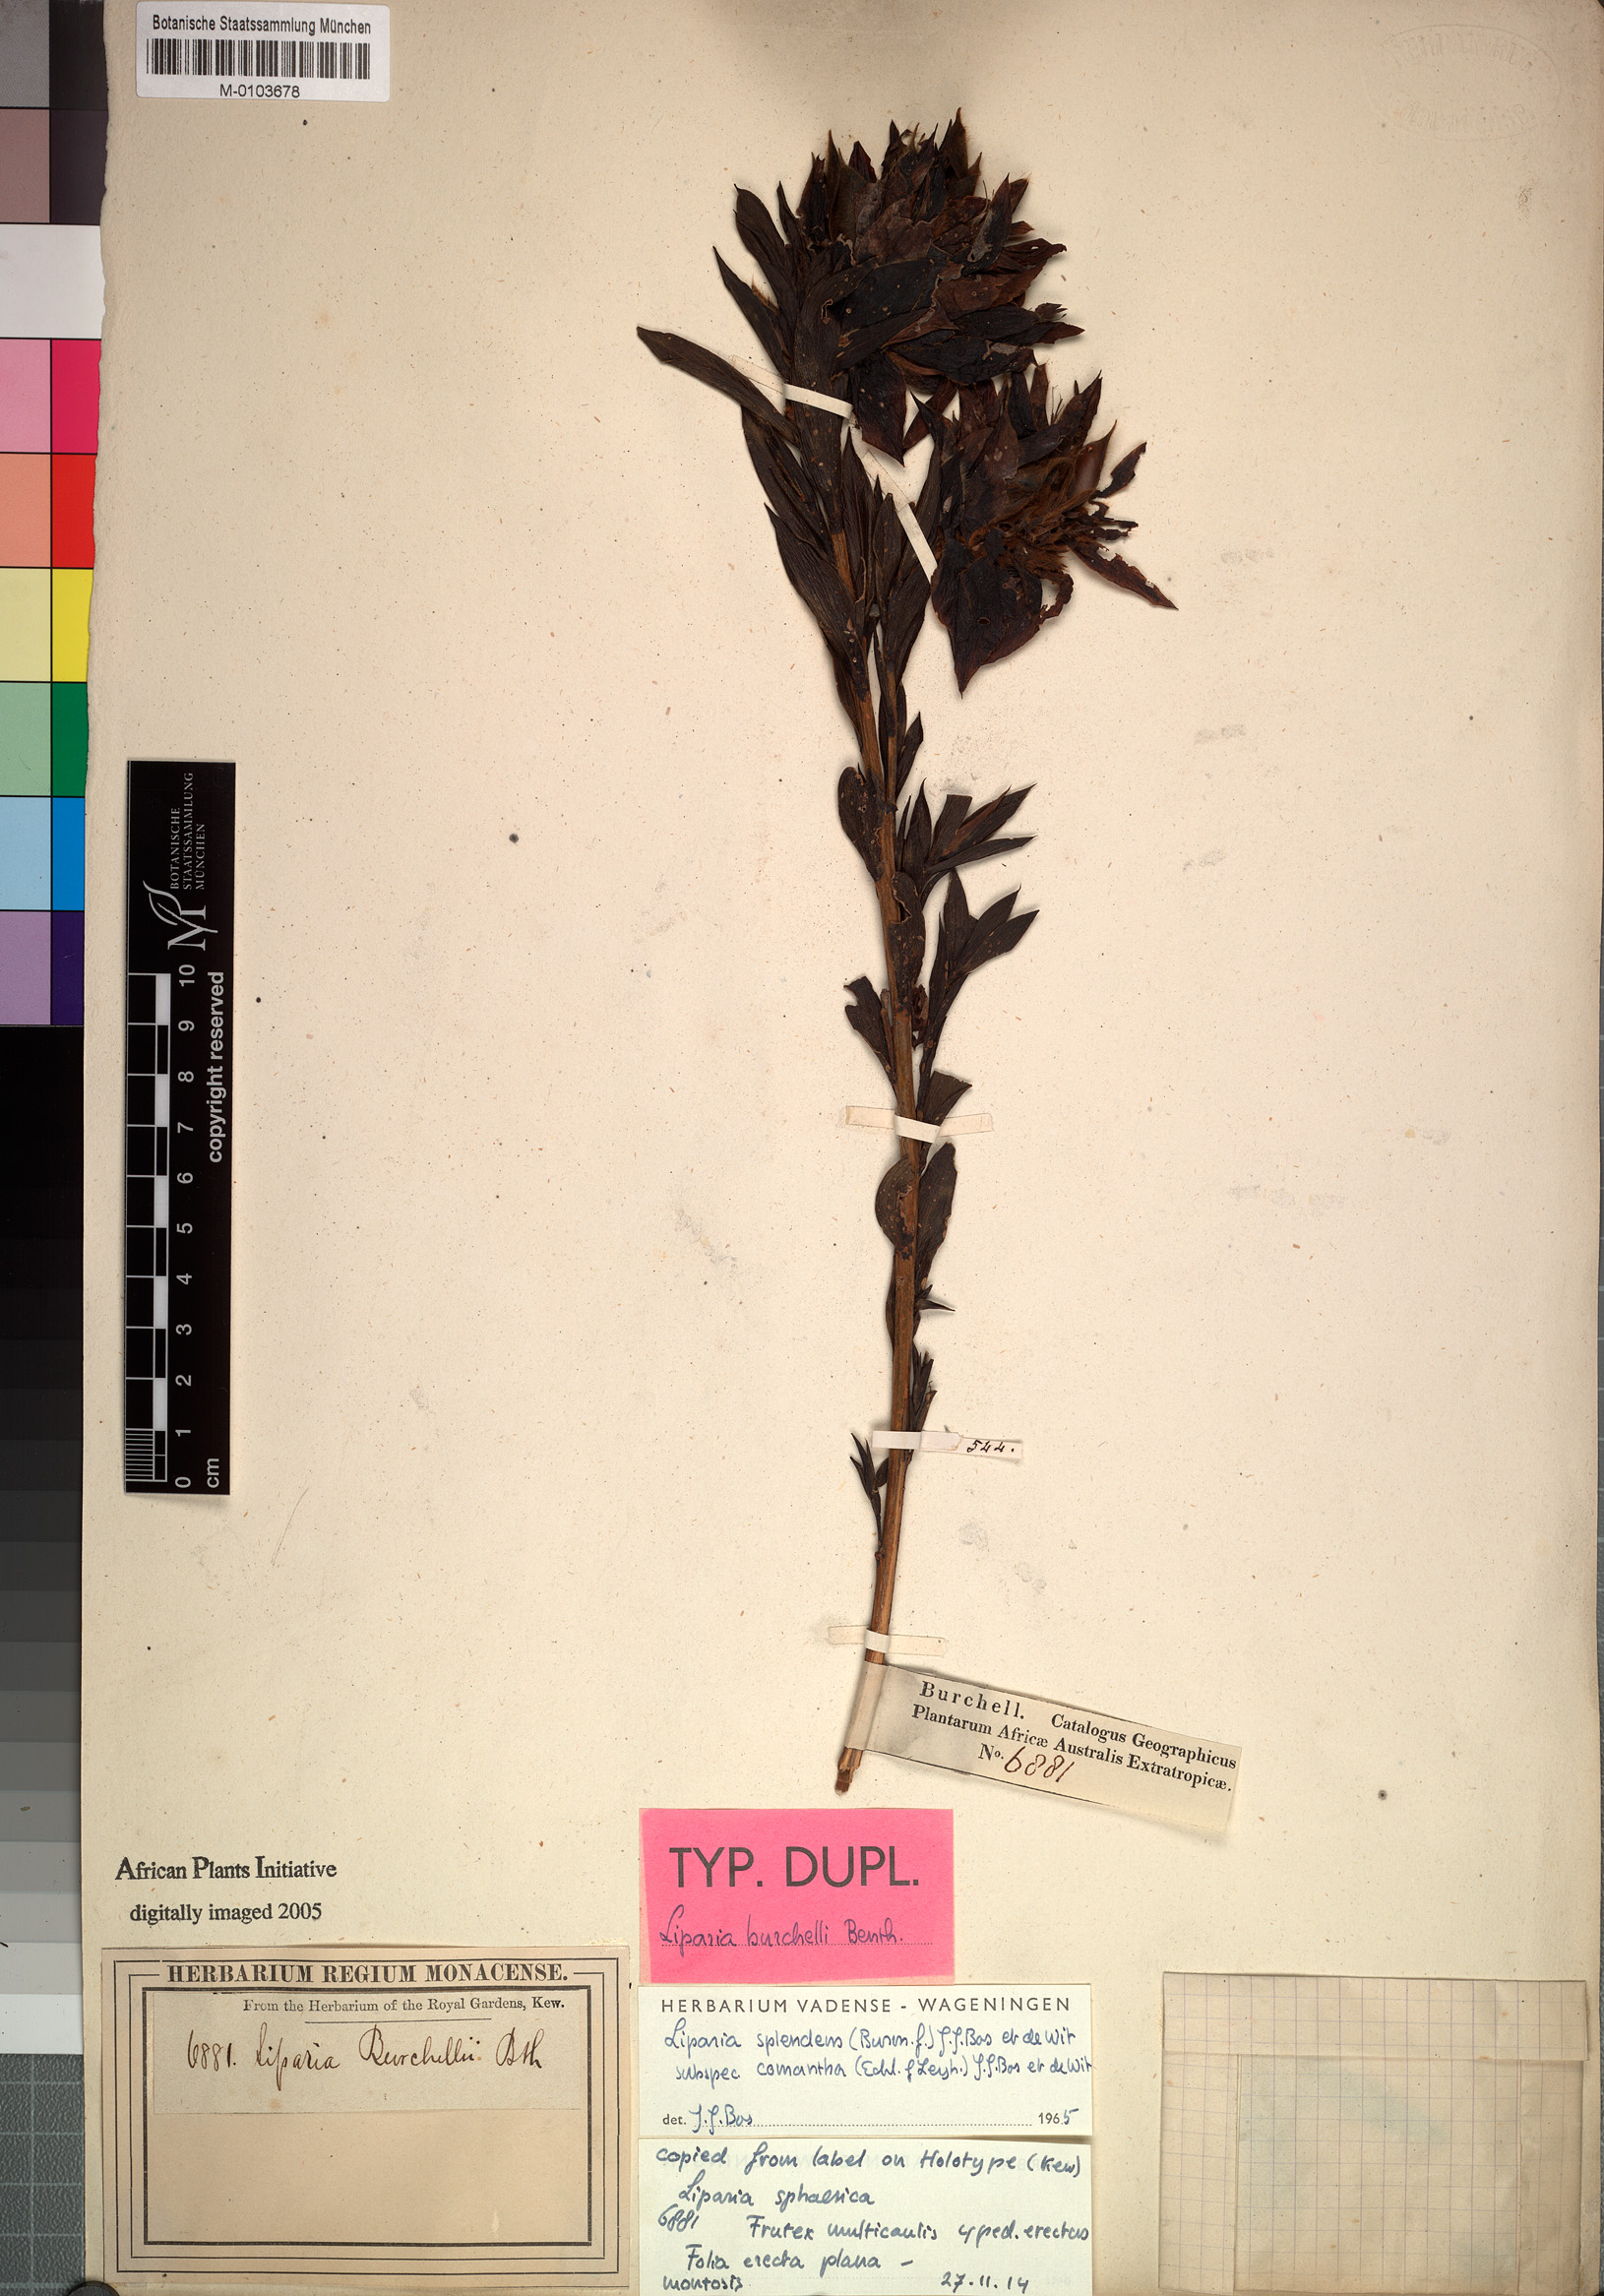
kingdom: Plantae
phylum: Tracheophyta
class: Magnoliopsida
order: Fabales
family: Fabaceae
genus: Liparia
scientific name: Liparia splendens
